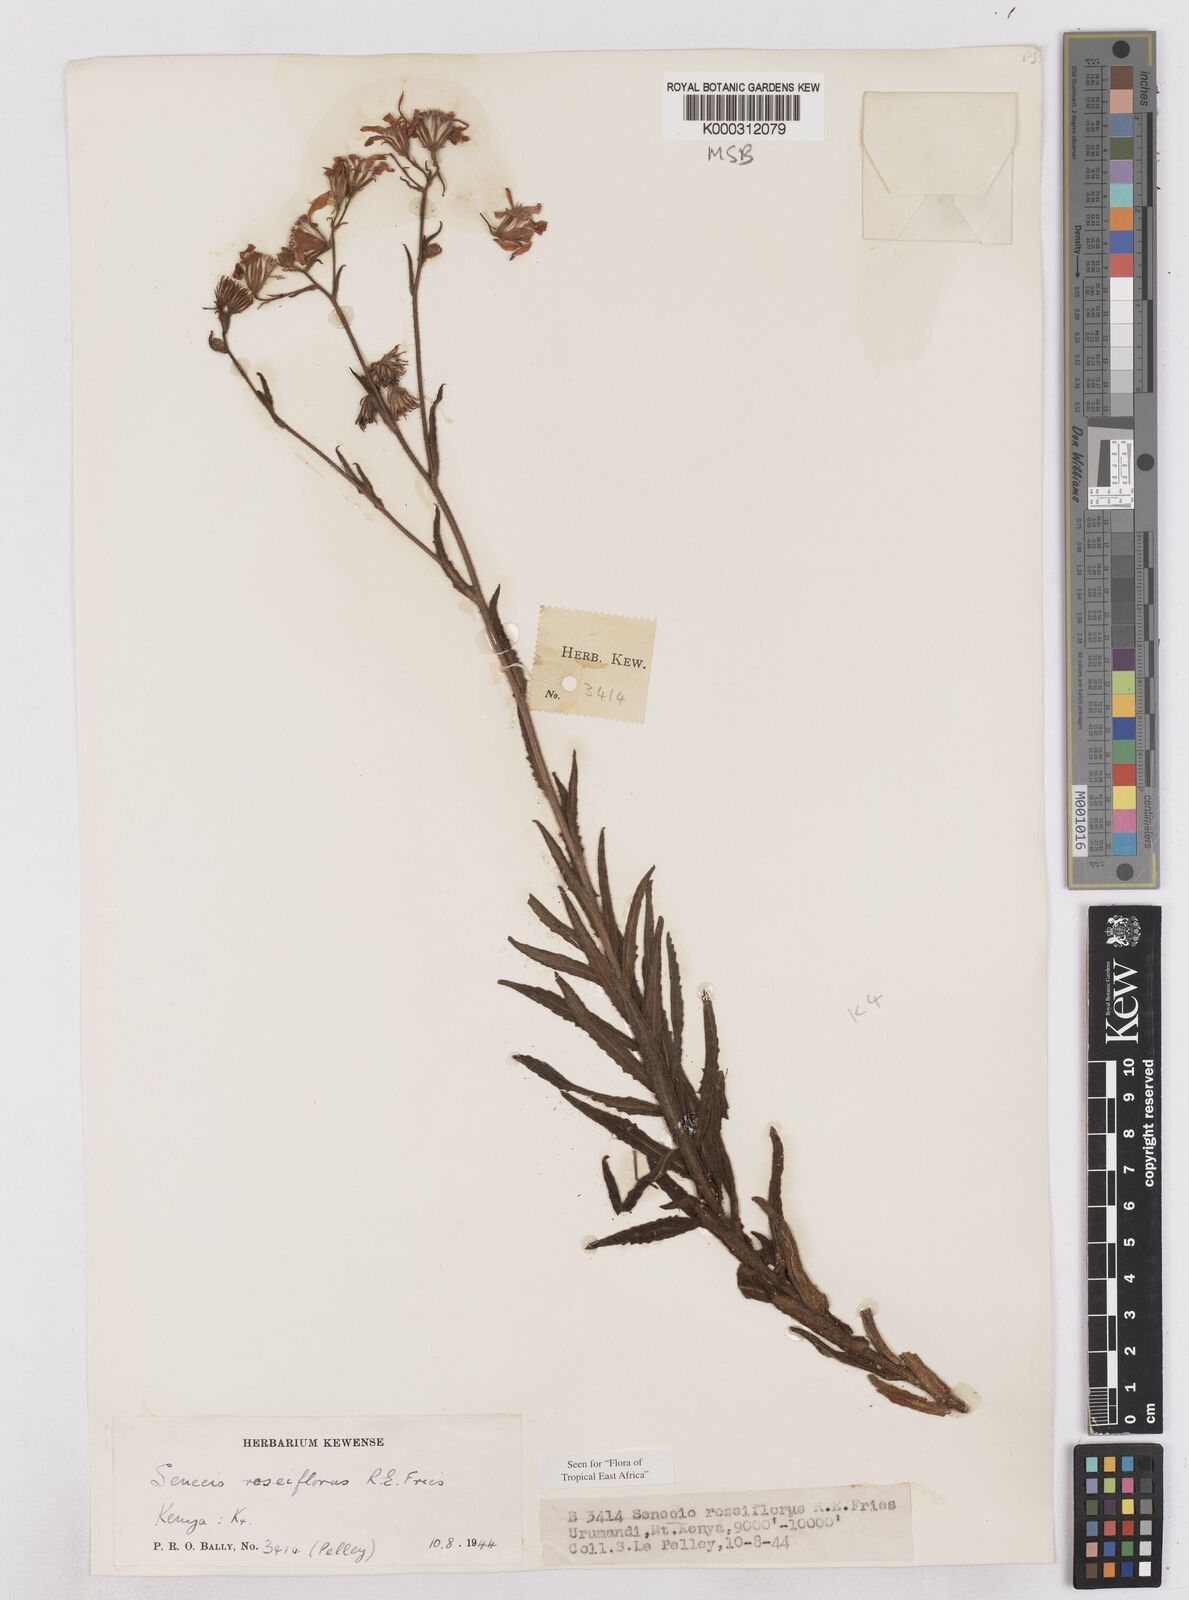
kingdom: Plantae
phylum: Tracheophyta
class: Magnoliopsida
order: Asterales
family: Asteraceae
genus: Senecio
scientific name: Senecio roseiflorus
